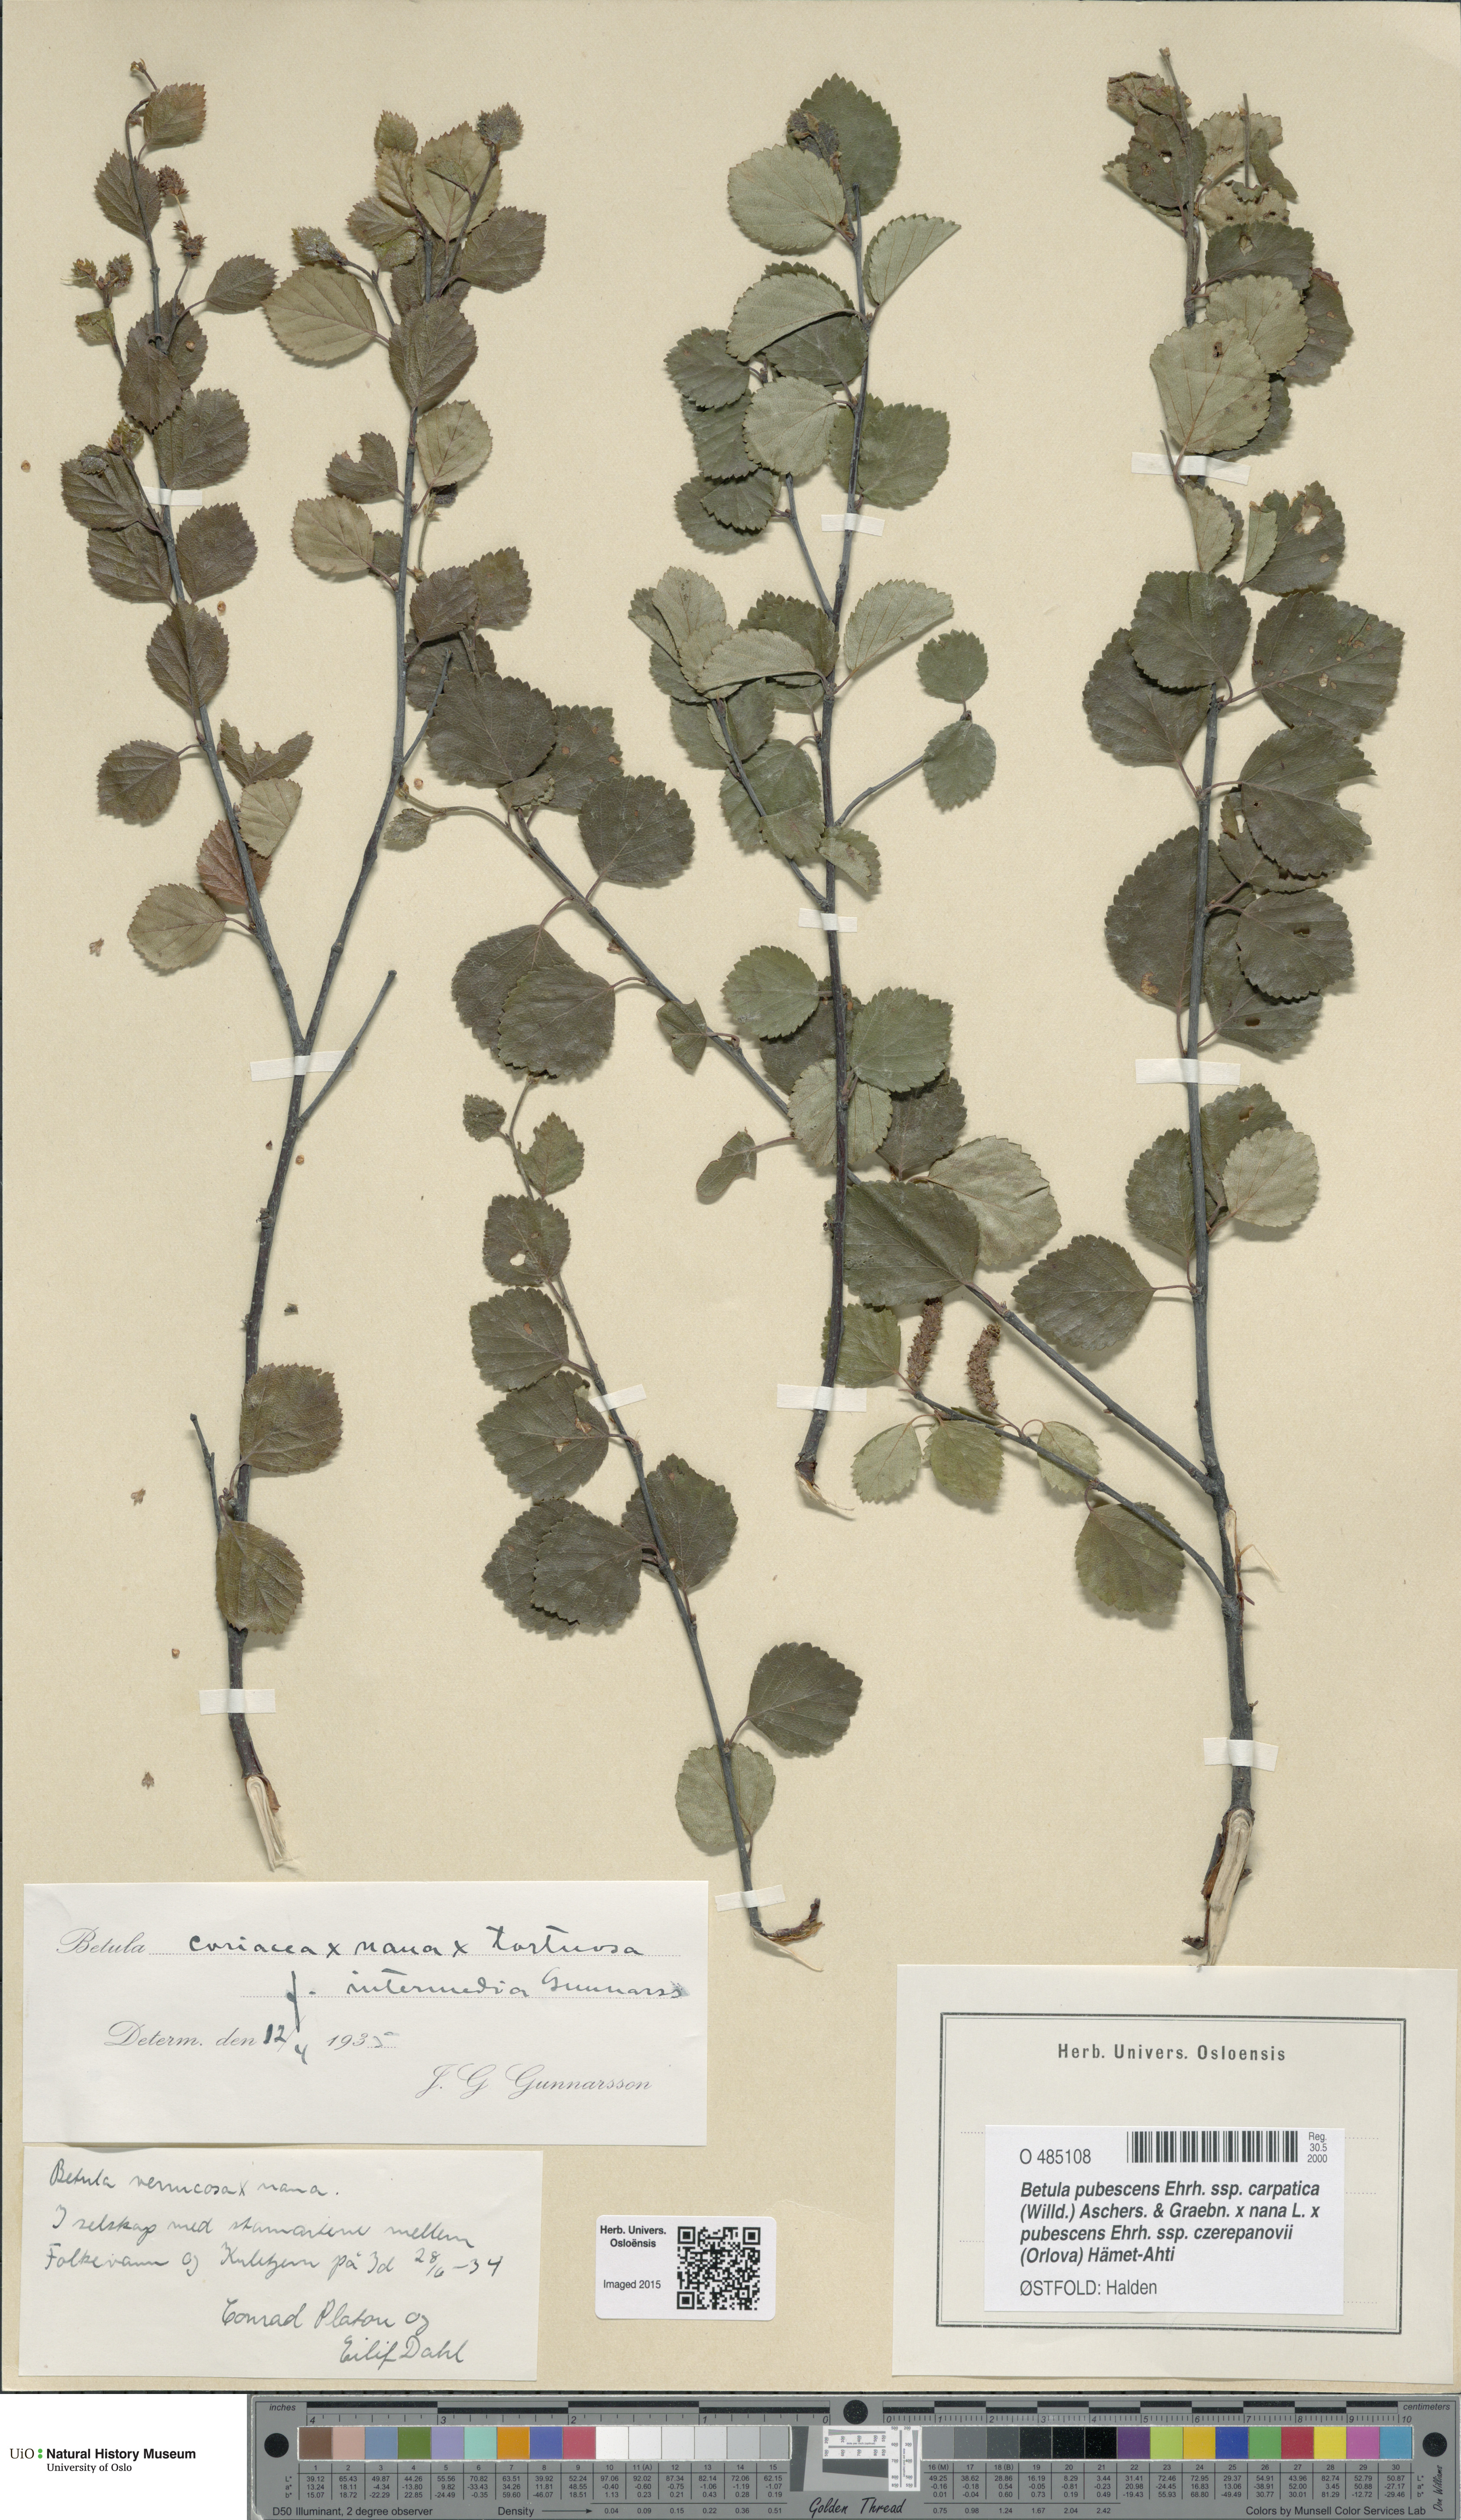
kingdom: Plantae
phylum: Tracheophyta
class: Magnoliopsida
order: Fagales
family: Betulaceae
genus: Betula
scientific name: Betula
